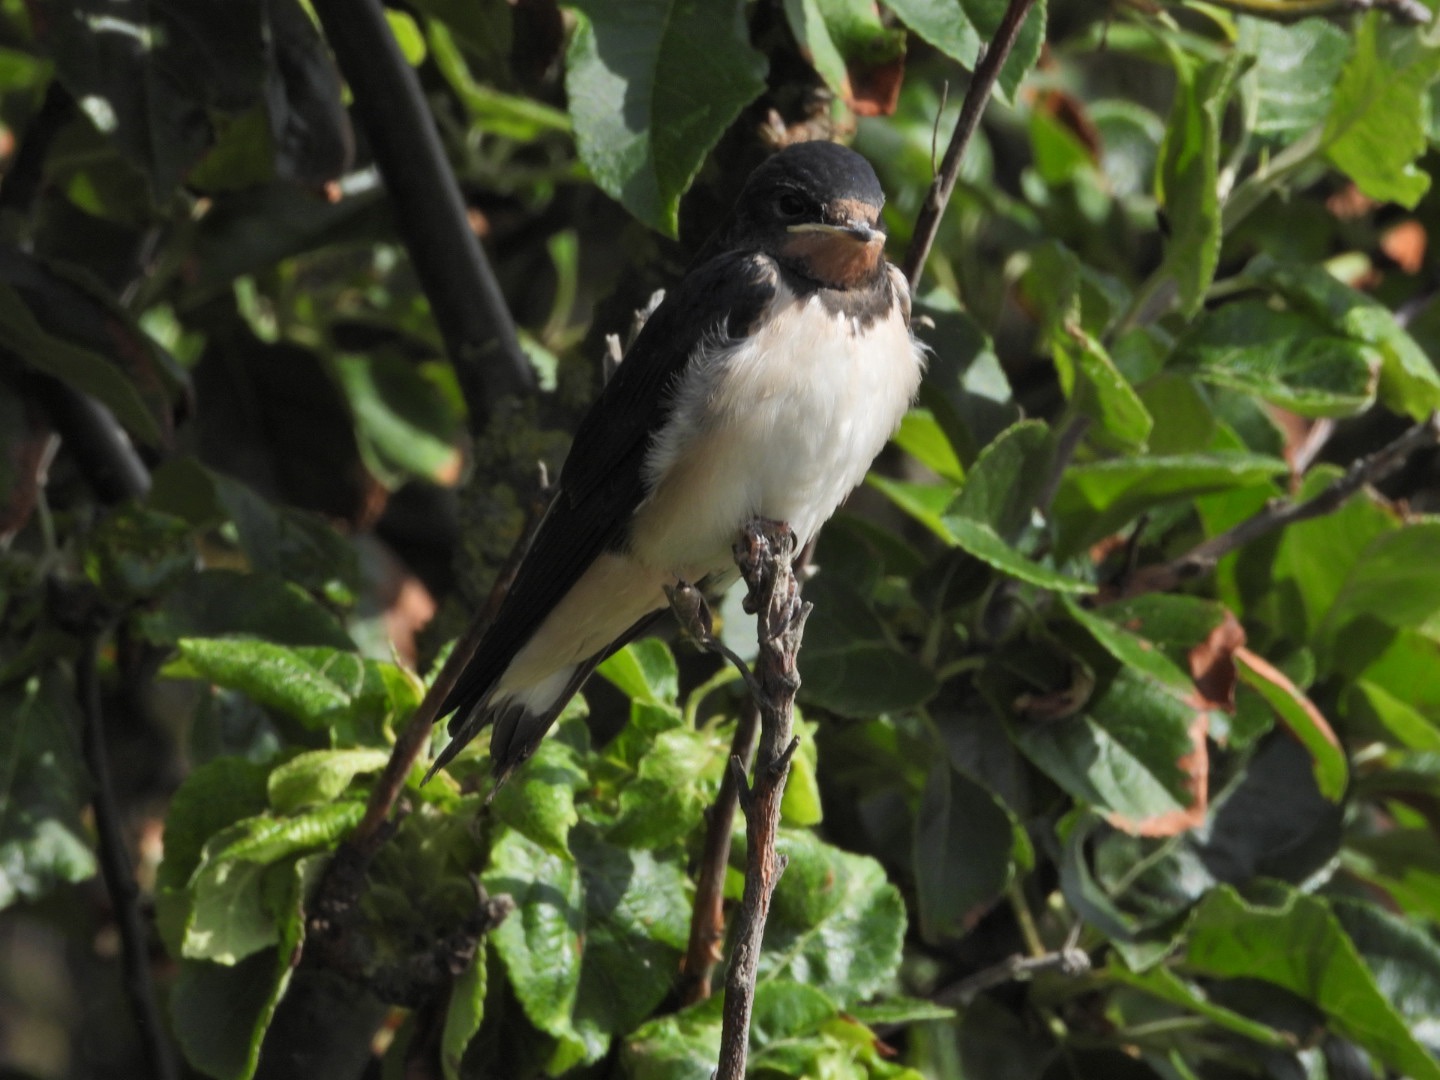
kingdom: Animalia
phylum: Chordata
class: Aves
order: Passeriformes
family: Hirundinidae
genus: Hirundo
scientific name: Hirundo rustica
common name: Landsvale
